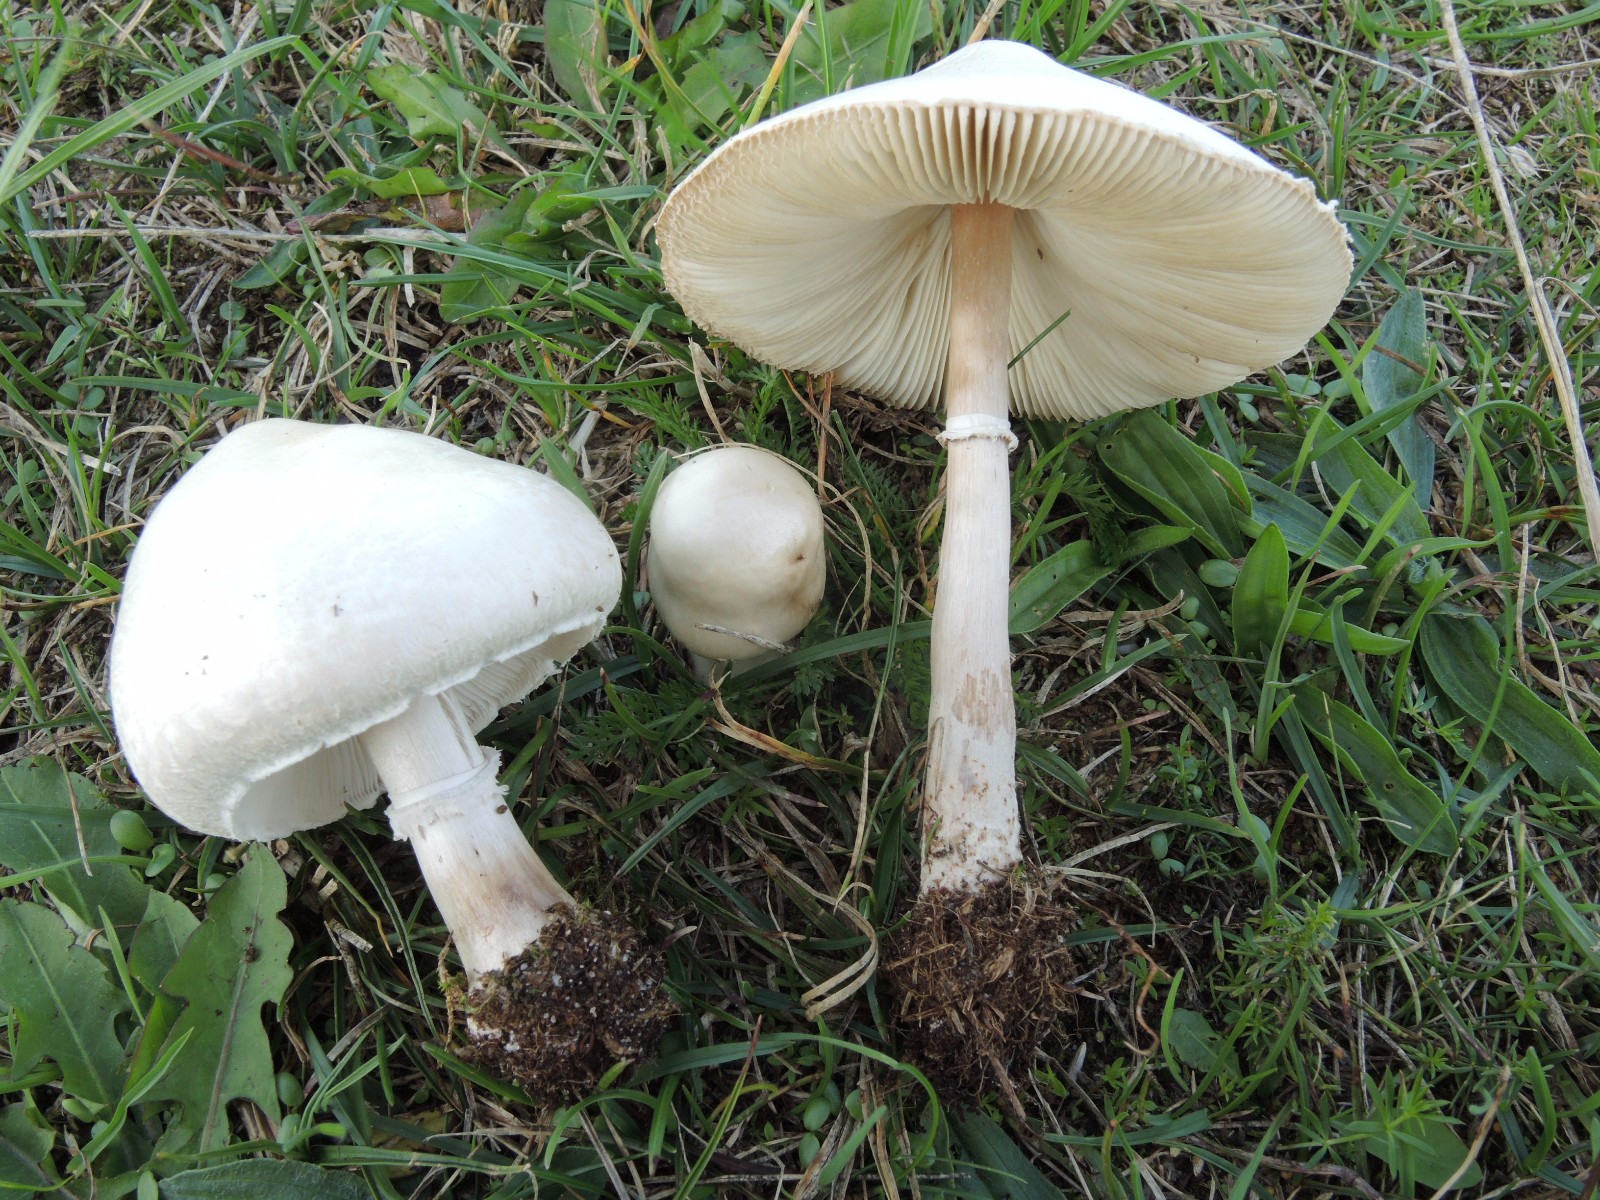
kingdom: Fungi
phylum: Basidiomycota
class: Agaricomycetes
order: Agaricales
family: Agaricaceae
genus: Macrolepiota
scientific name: Macrolepiota excoriata
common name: mark-kæmpeparasolhat
